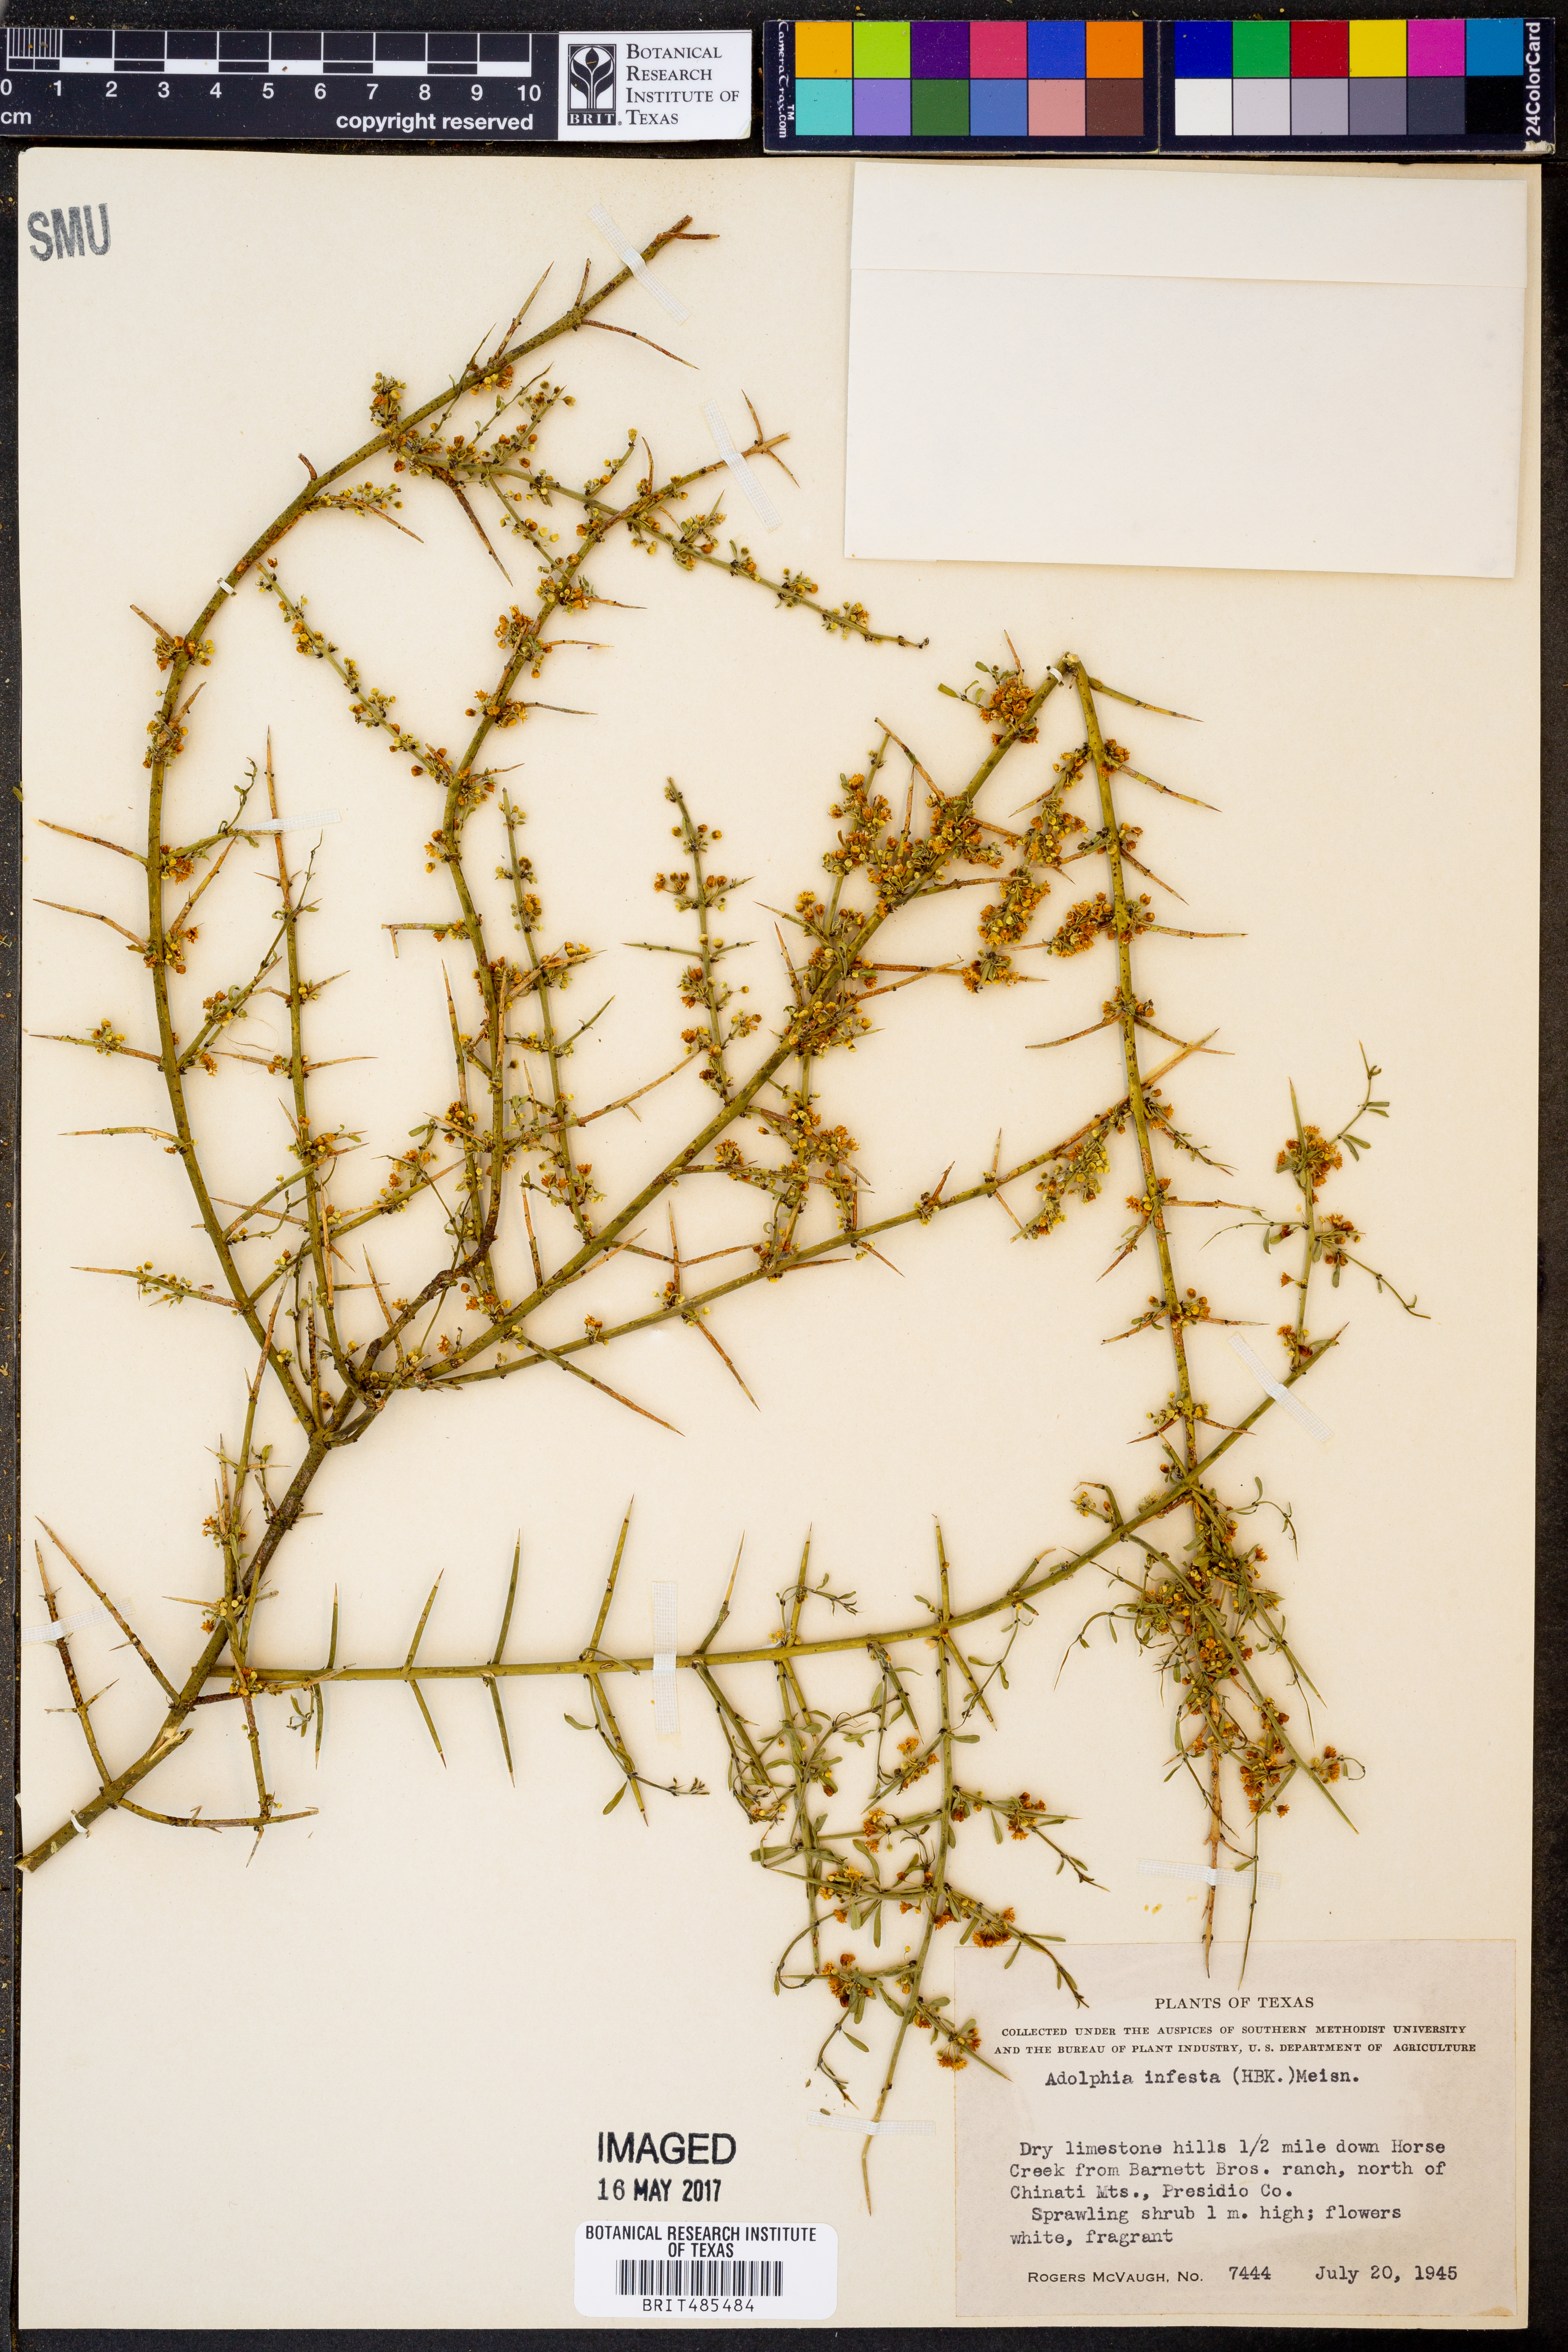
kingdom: Plantae
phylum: Tracheophyta
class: Magnoliopsida
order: Rosales
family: Rhamnaceae
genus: Adolphia
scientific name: Adolphia infesta
